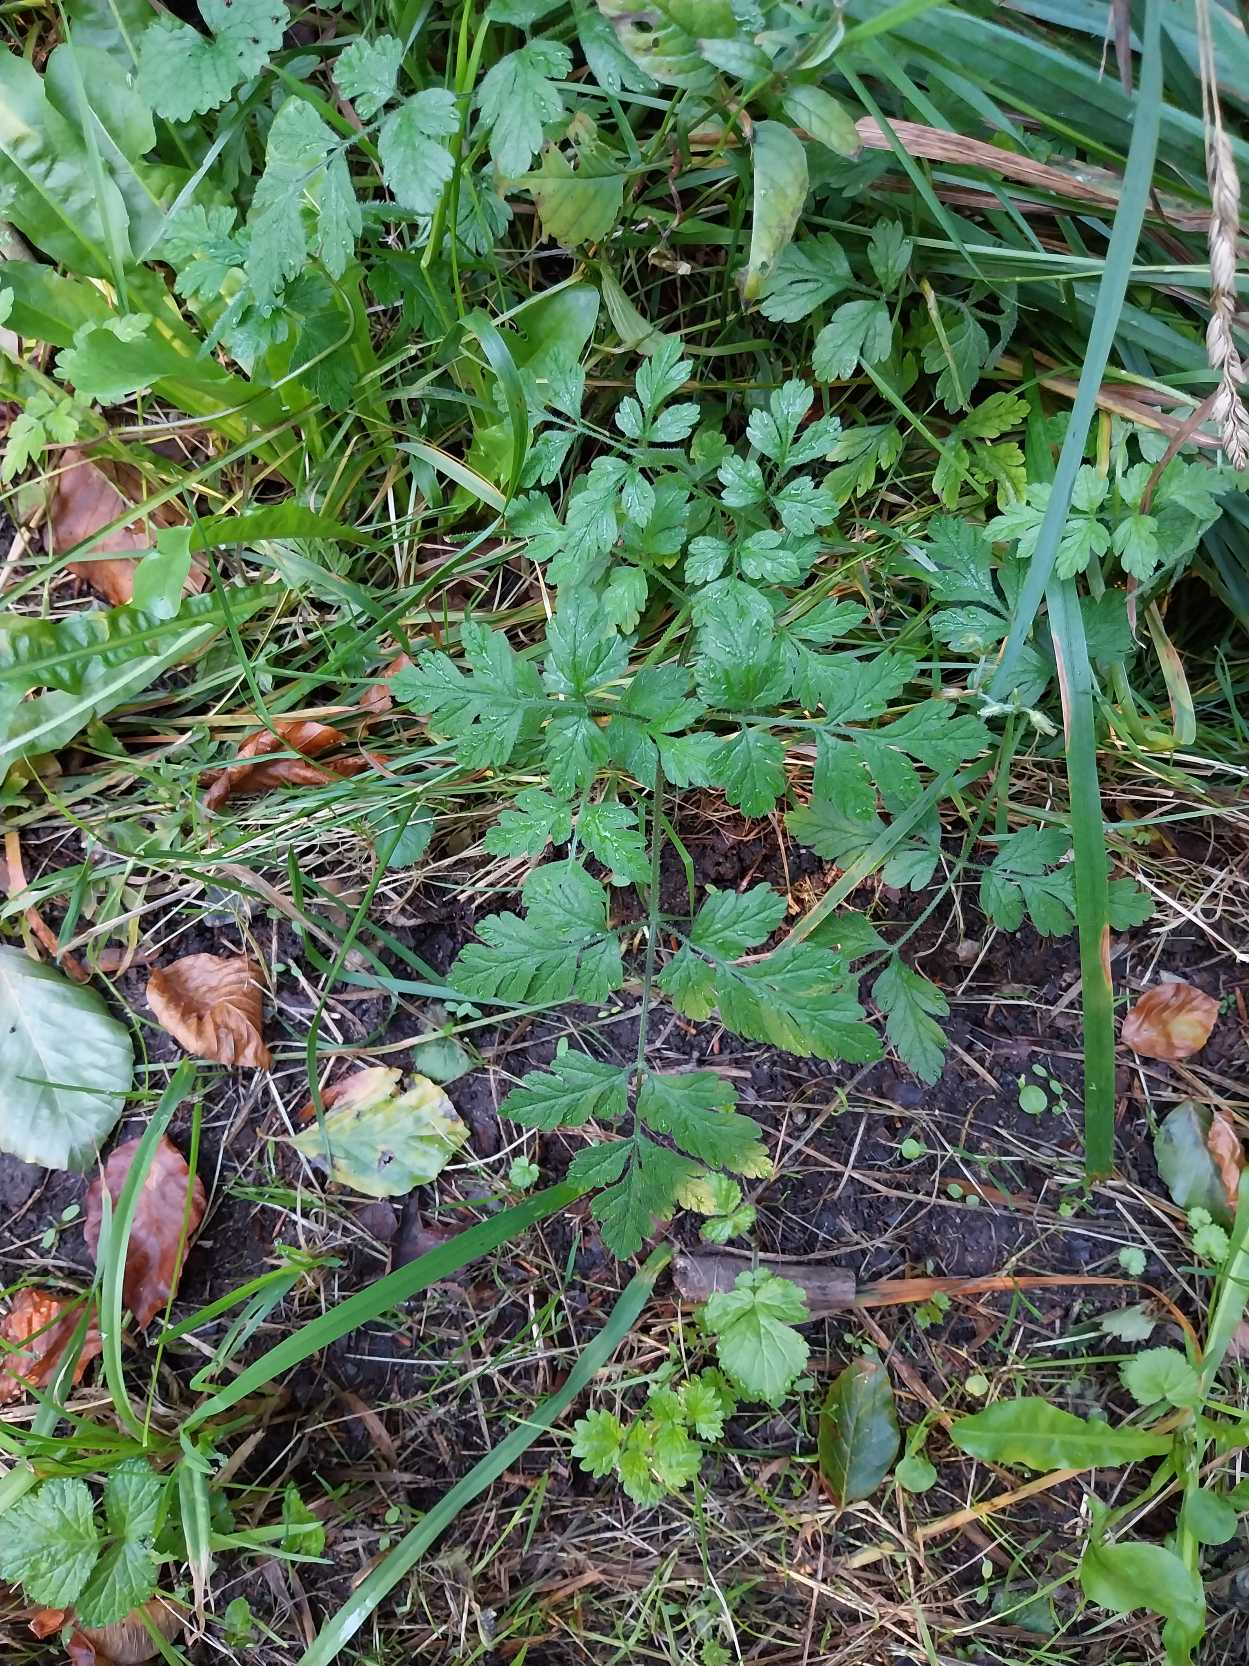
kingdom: Plantae
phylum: Tracheophyta
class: Magnoliopsida
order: Apiales
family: Apiaceae
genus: Chaerophyllum
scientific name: Chaerophyllum temulum
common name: Almindelig hulsvøb
